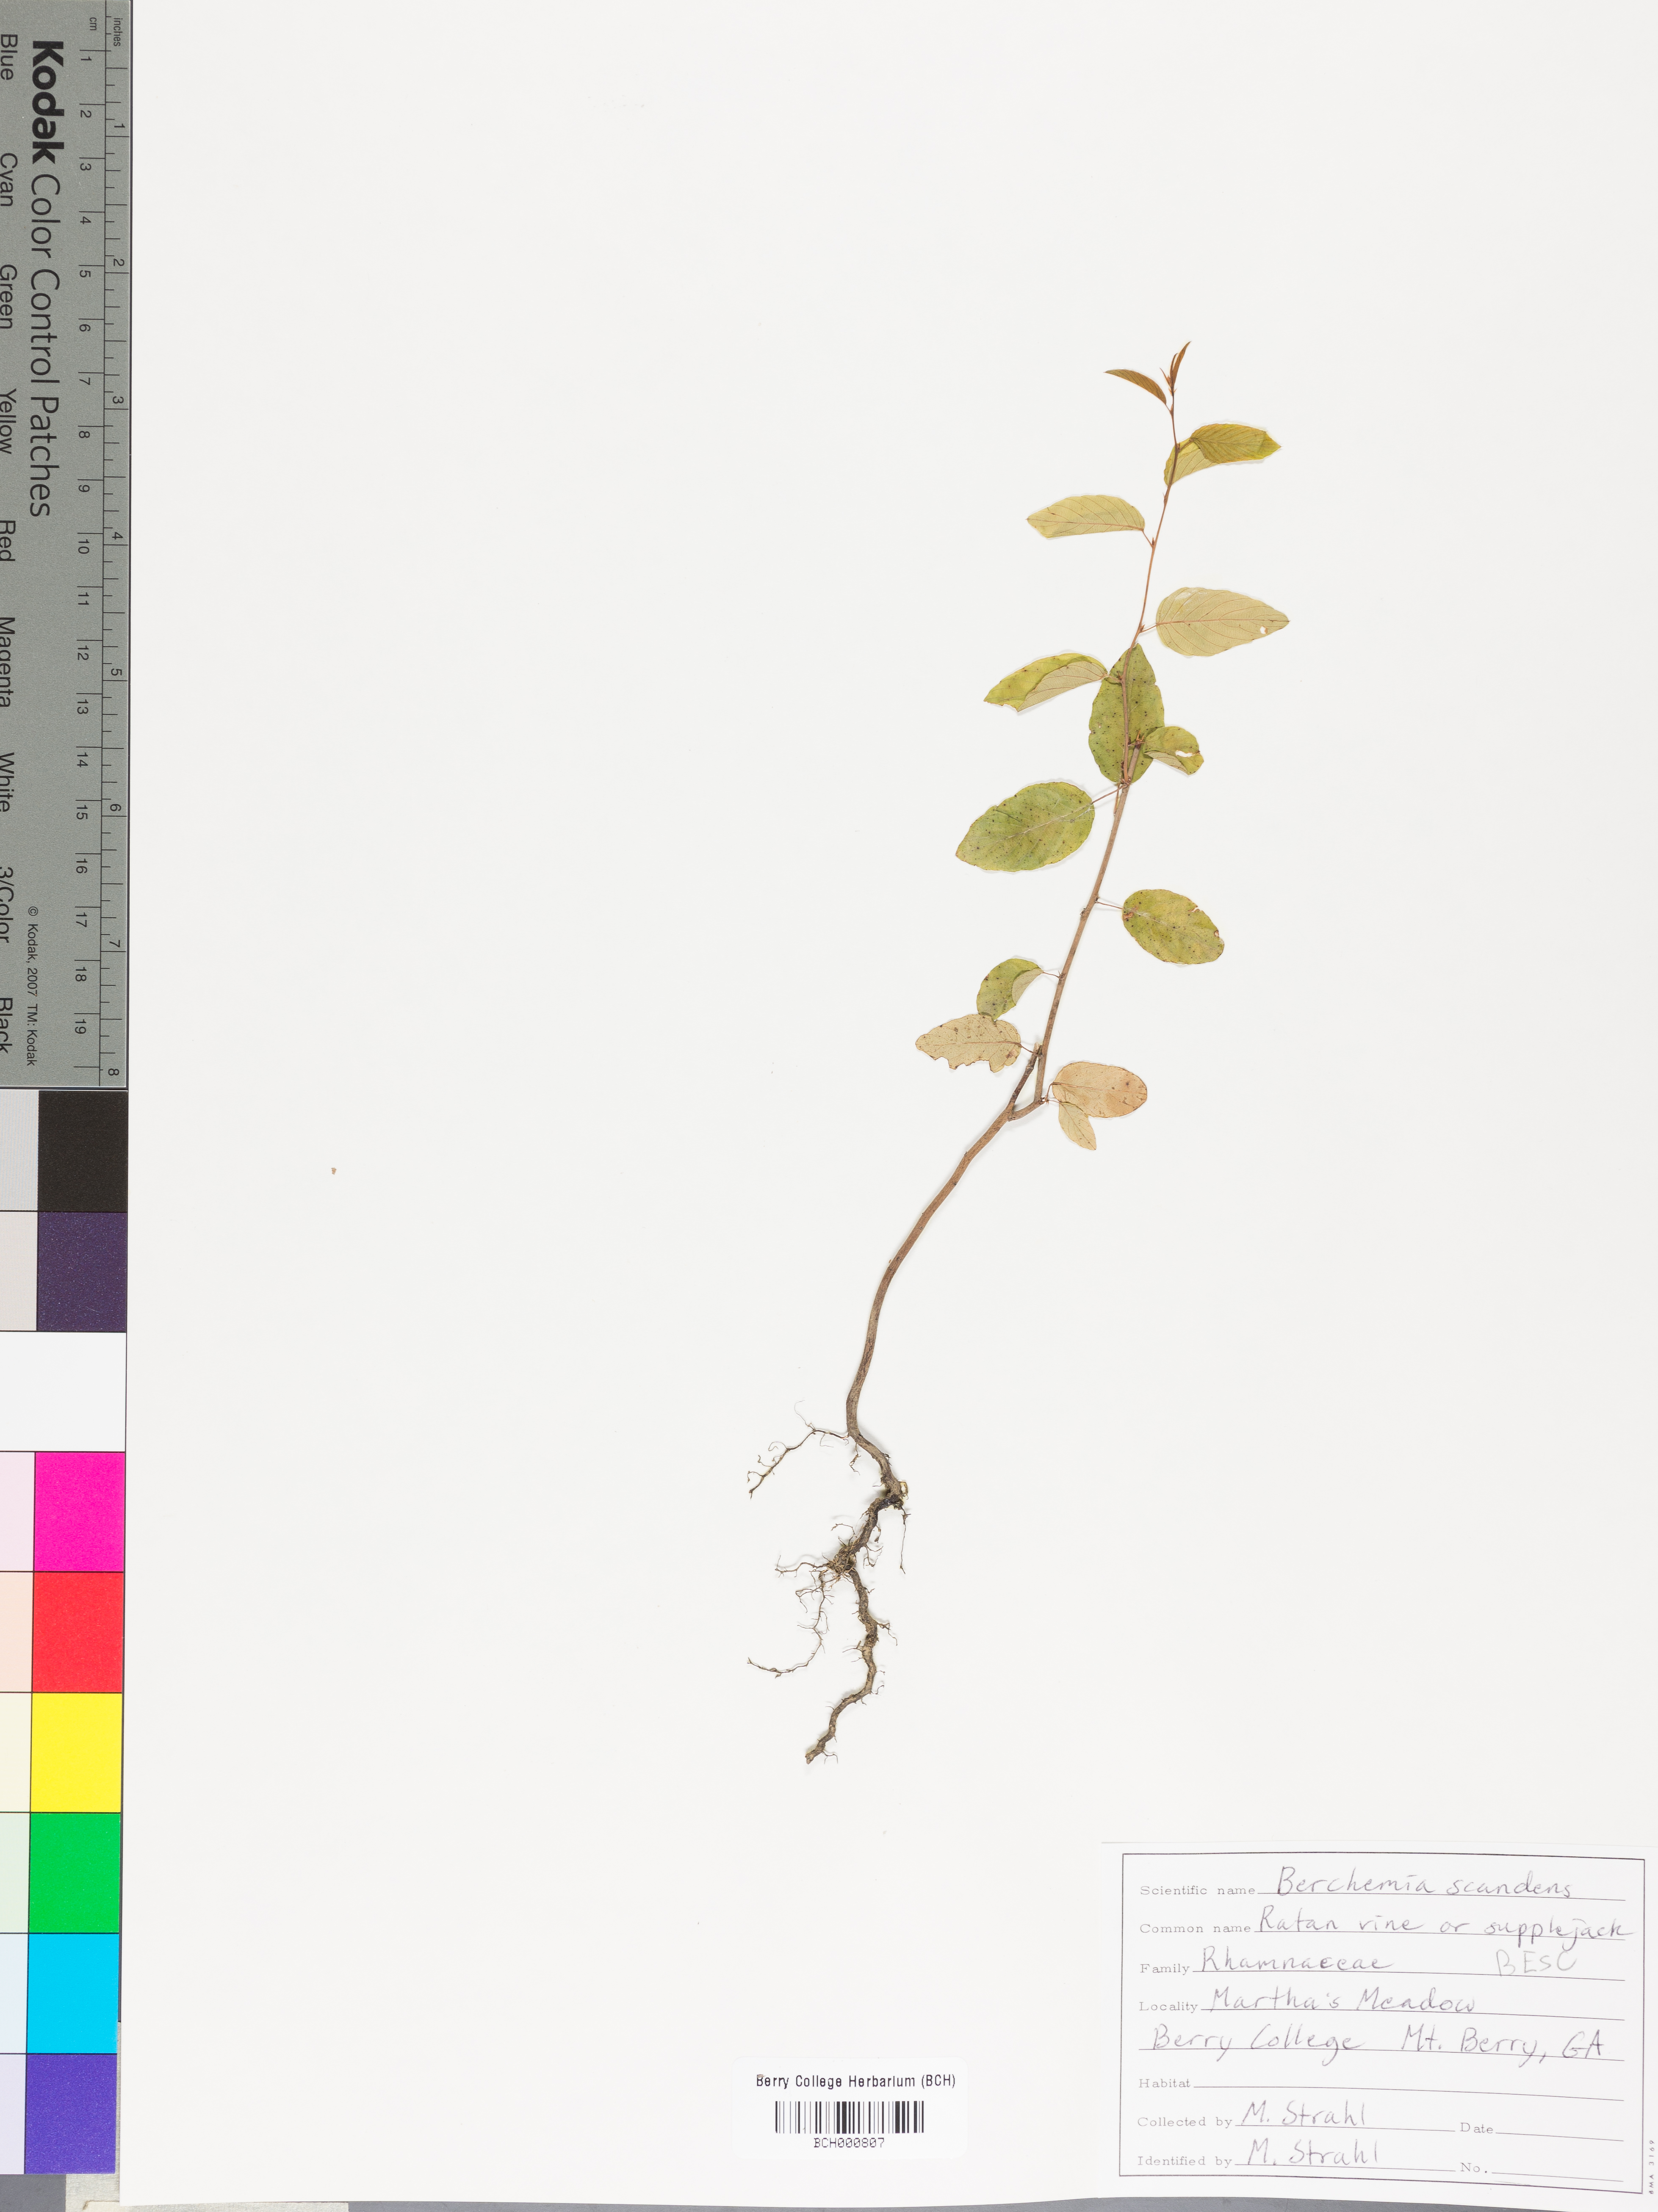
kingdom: Plantae
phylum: Tracheophyta
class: Magnoliopsida
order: Rosales
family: Rhamnaceae
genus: Berchemia
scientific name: Berchemia scandens
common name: Supplejack
